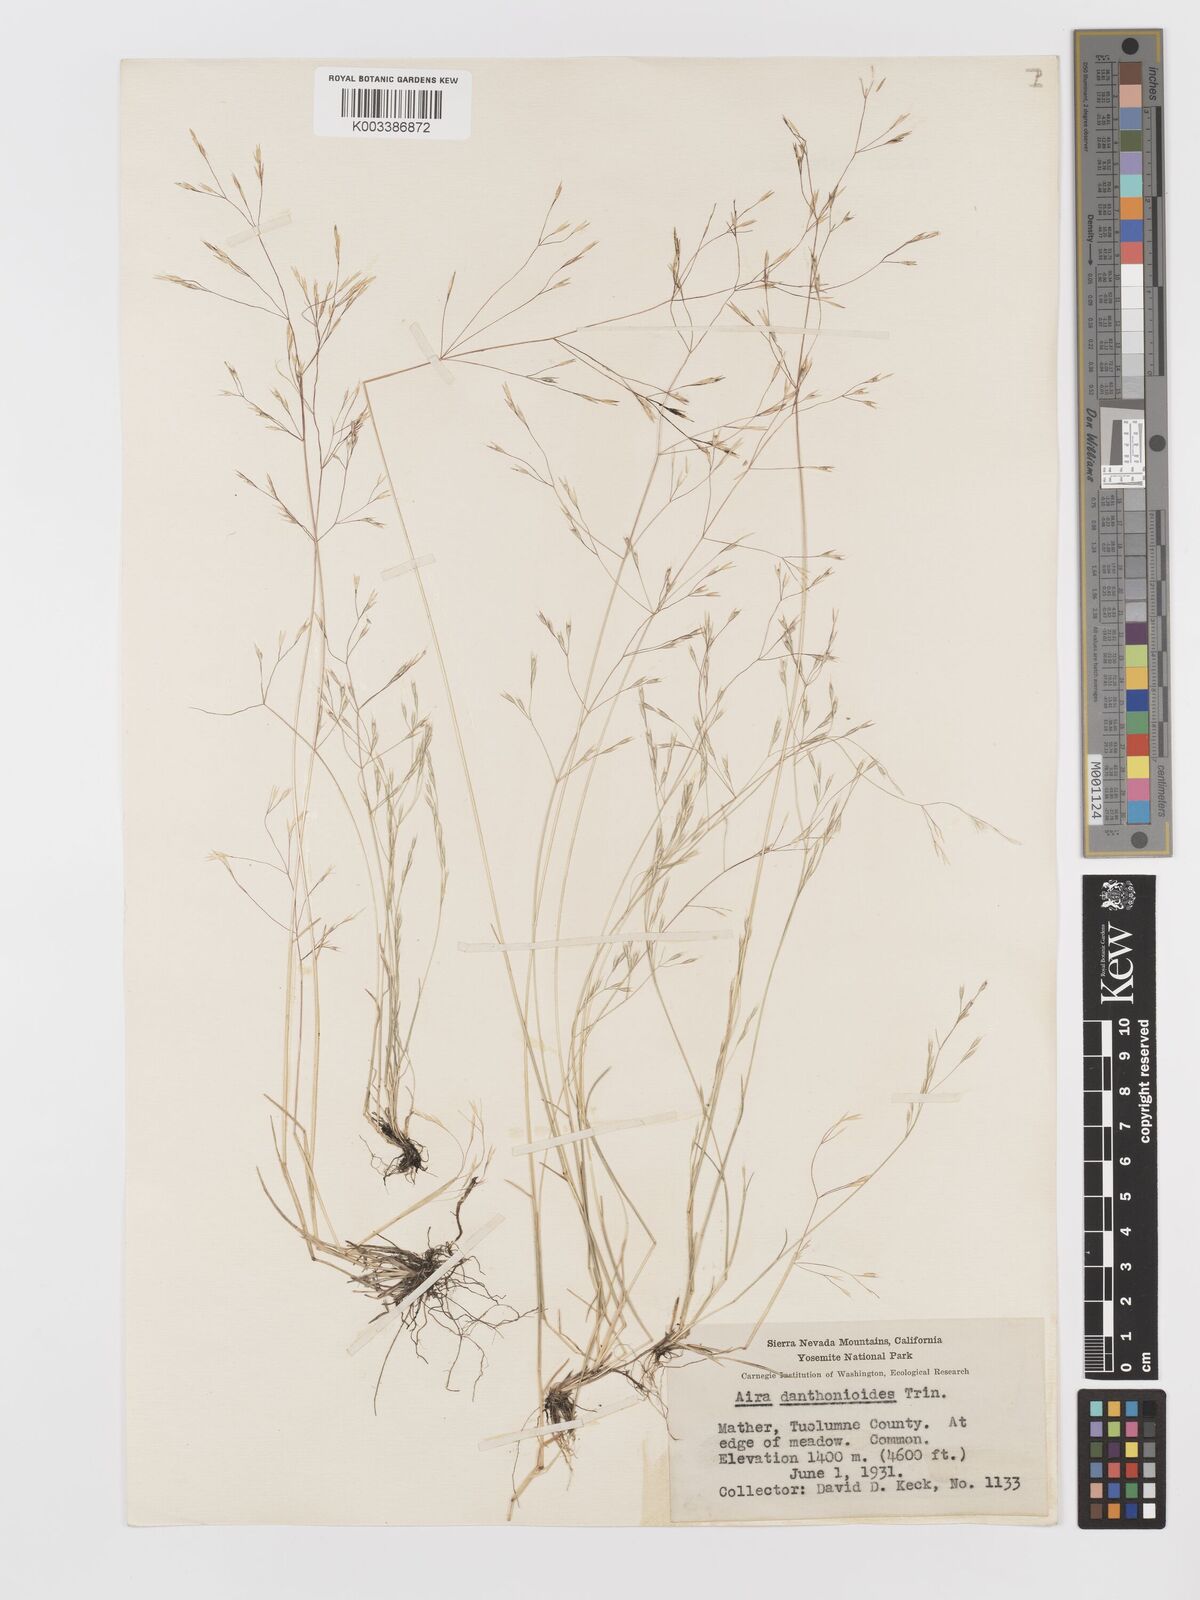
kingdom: Plantae
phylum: Tracheophyta
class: Liliopsida
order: Poales
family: Poaceae
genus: Deschampsia
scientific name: Deschampsia danthonioides
